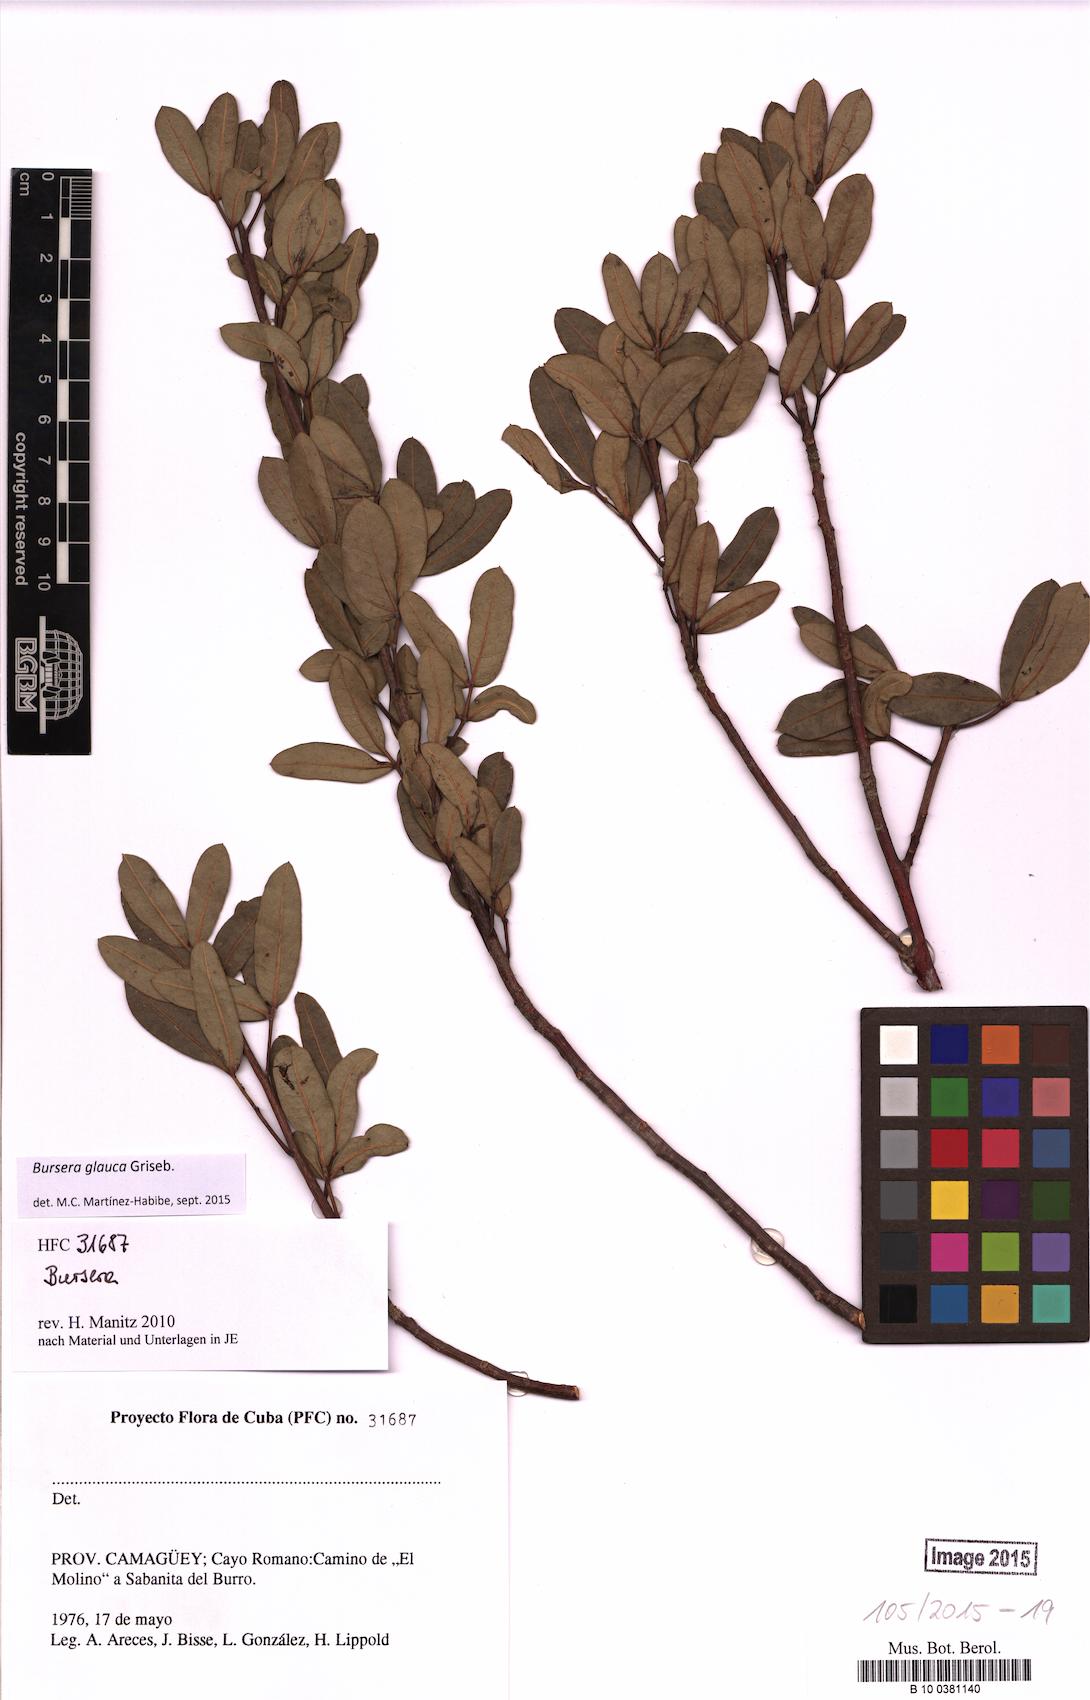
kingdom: Plantae
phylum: Tracheophyta
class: Magnoliopsida
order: Sapindales
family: Burseraceae
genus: Bursera
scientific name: Bursera glauca
